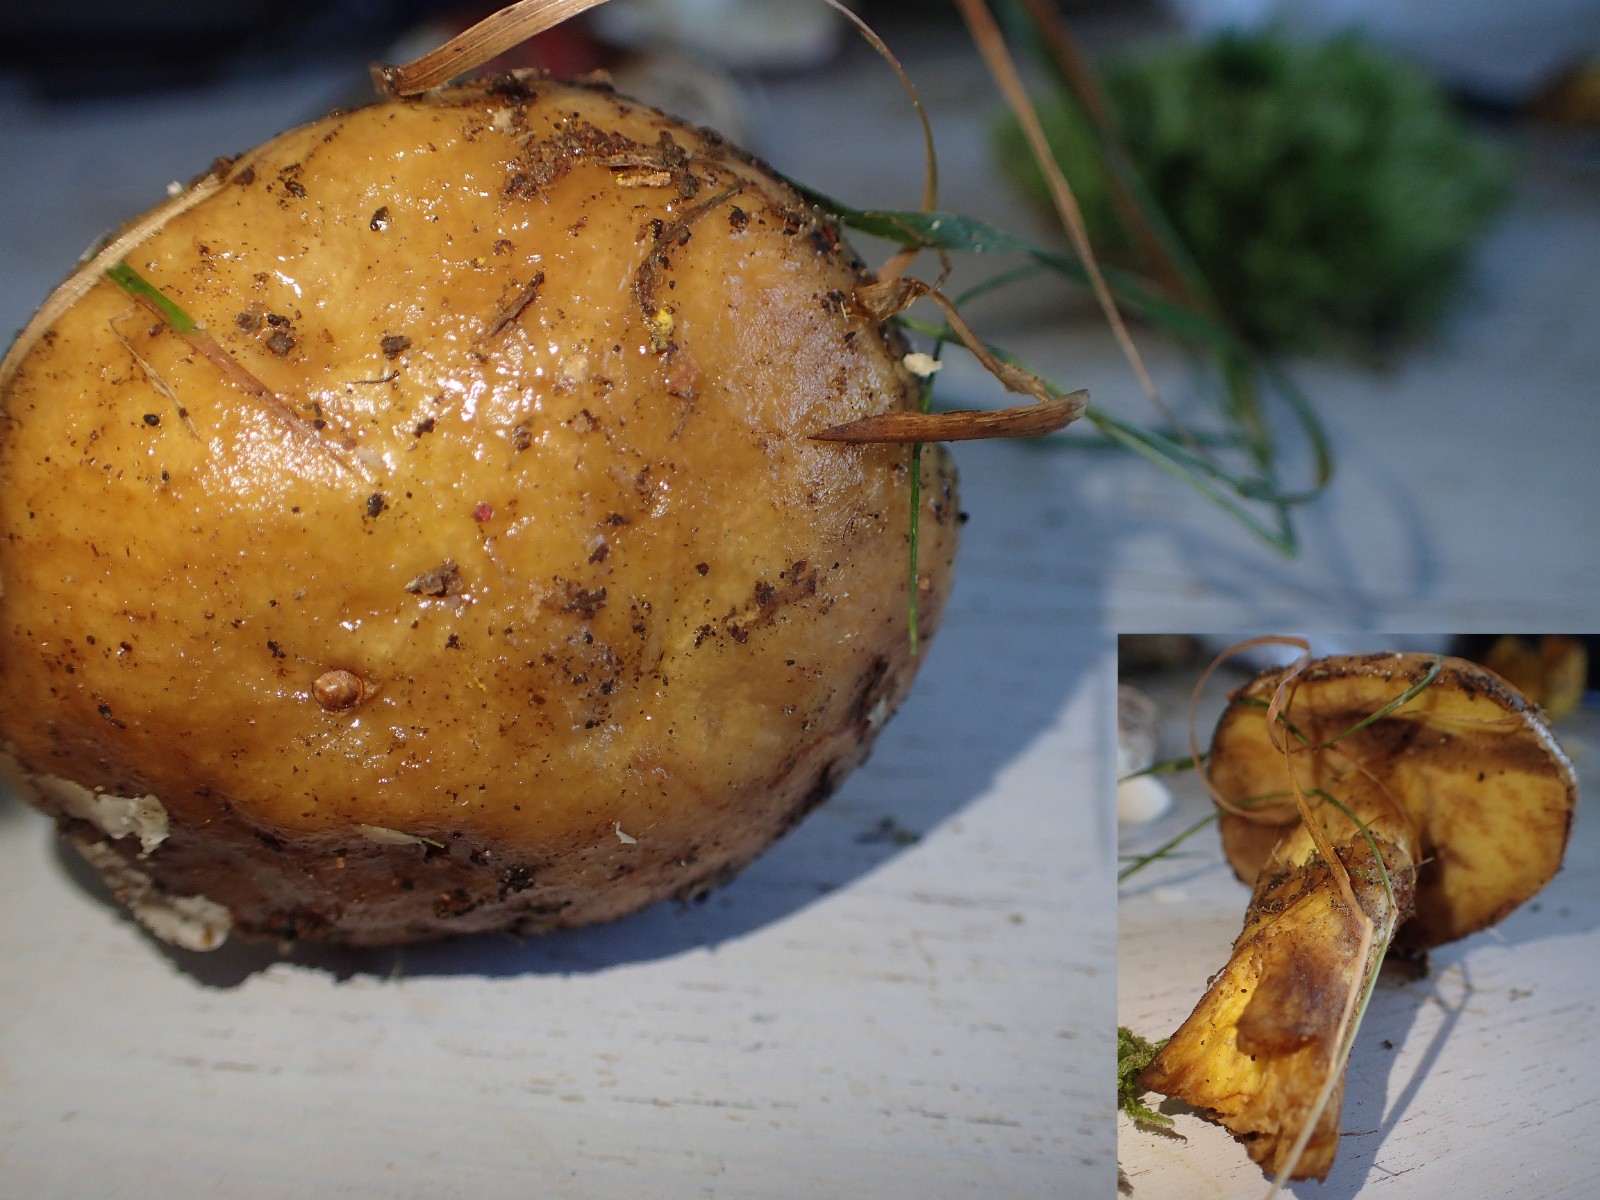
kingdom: Fungi
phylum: Basidiomycota
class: Agaricomycetes
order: Boletales
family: Suillaceae
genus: Suillus
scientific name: Suillus grevillei
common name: lærke-slimrørhat
